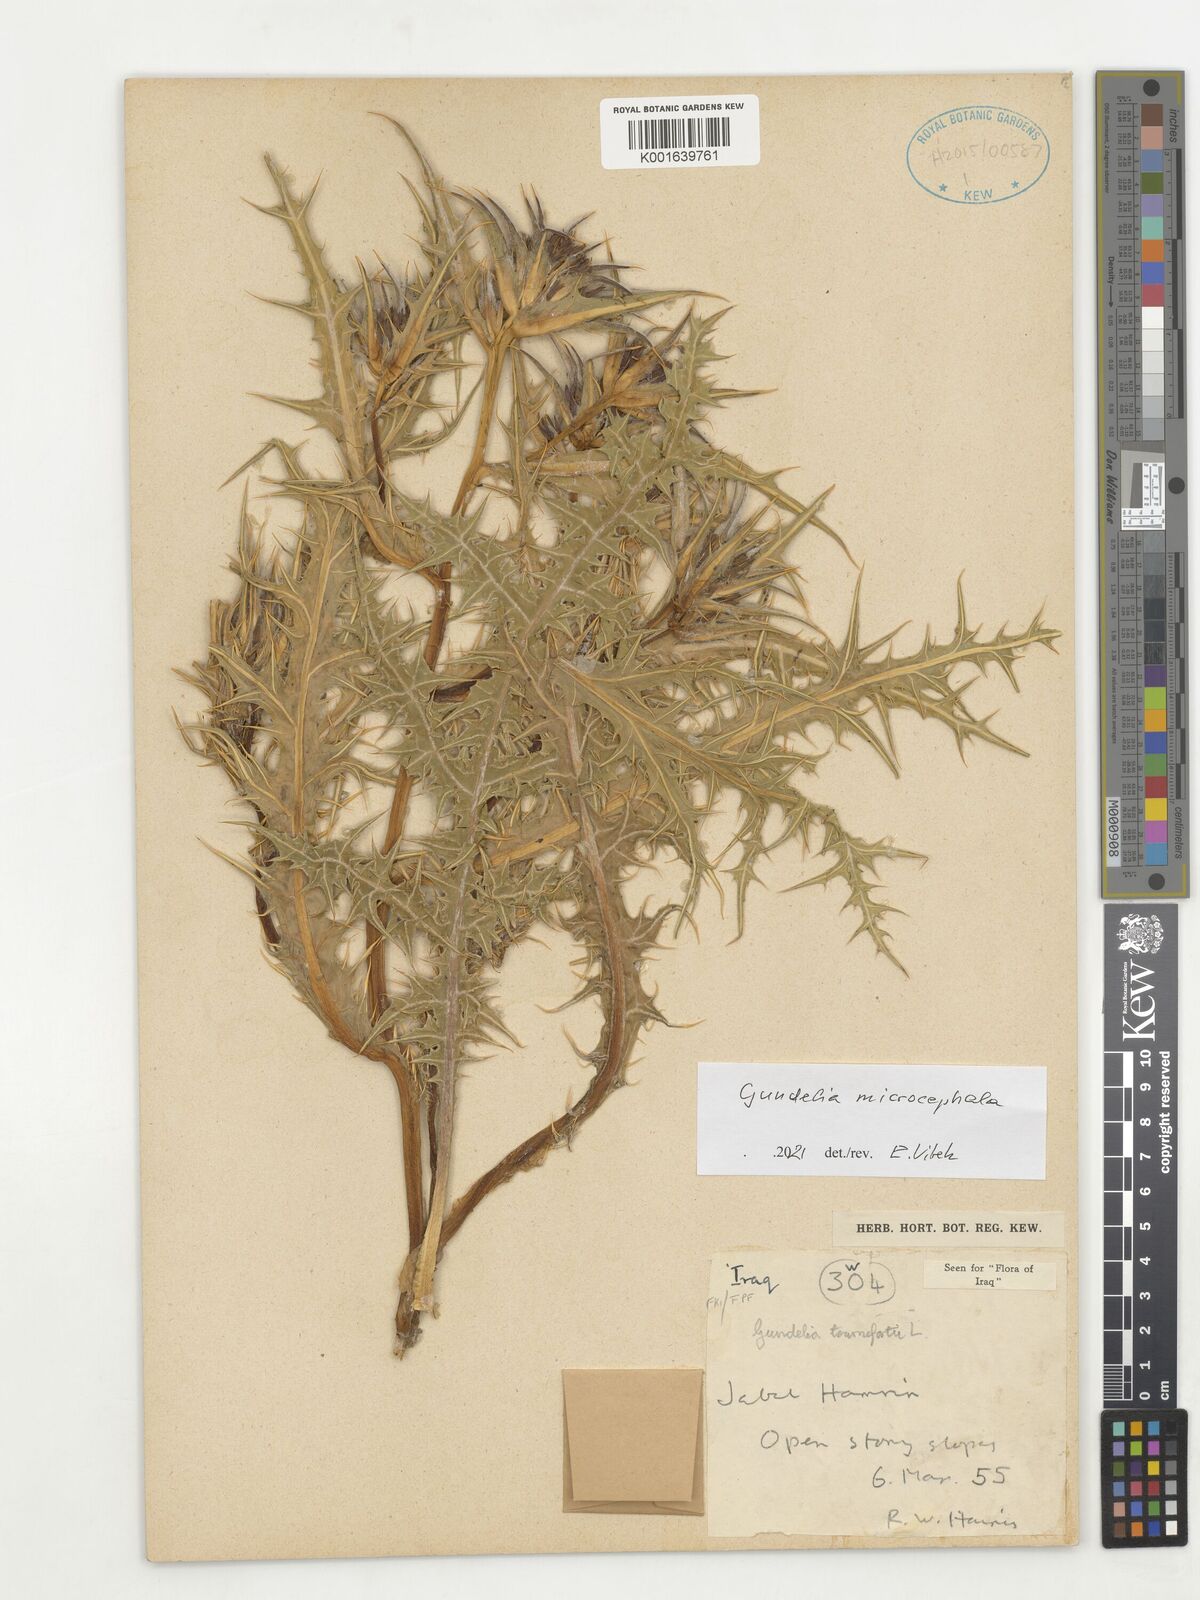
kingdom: Plantae
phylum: Tracheophyta
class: Magnoliopsida
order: Asterales
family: Asteraceae
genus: Gundelia
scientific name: Gundelia microcephala
